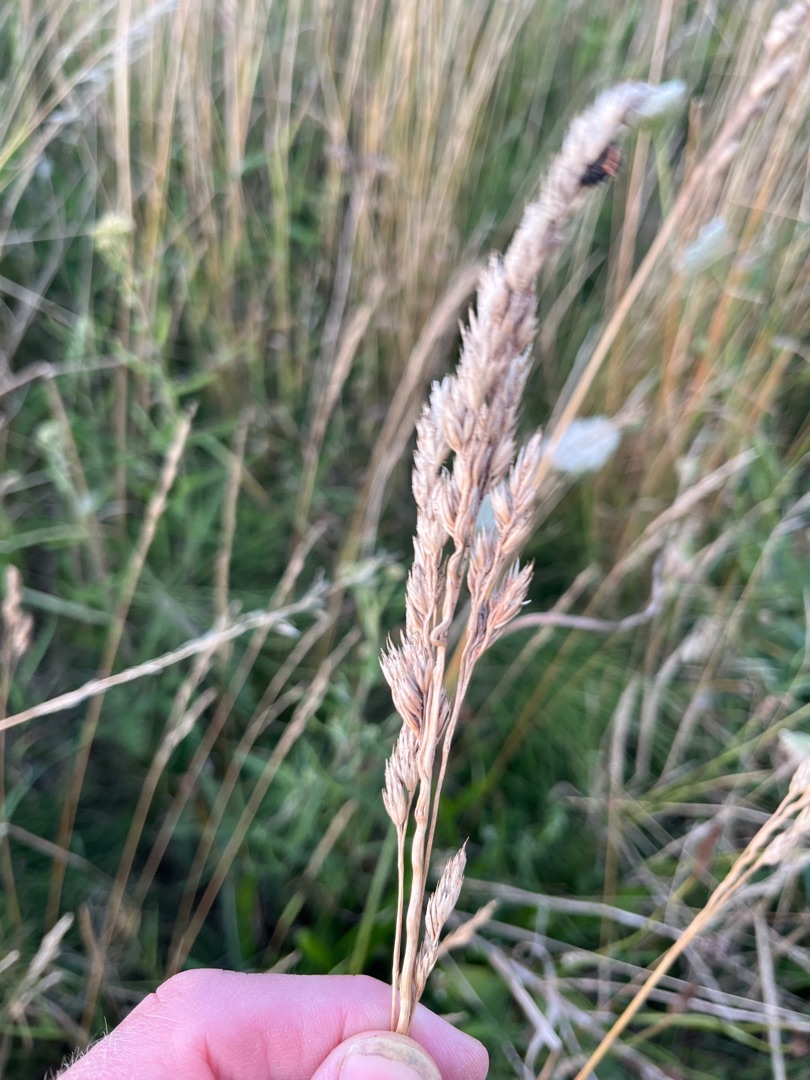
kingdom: Plantae
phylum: Tracheophyta
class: Liliopsida
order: Poales
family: Poaceae
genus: Dactylis
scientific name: Dactylis glomerata
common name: Almindelig hundegræs
